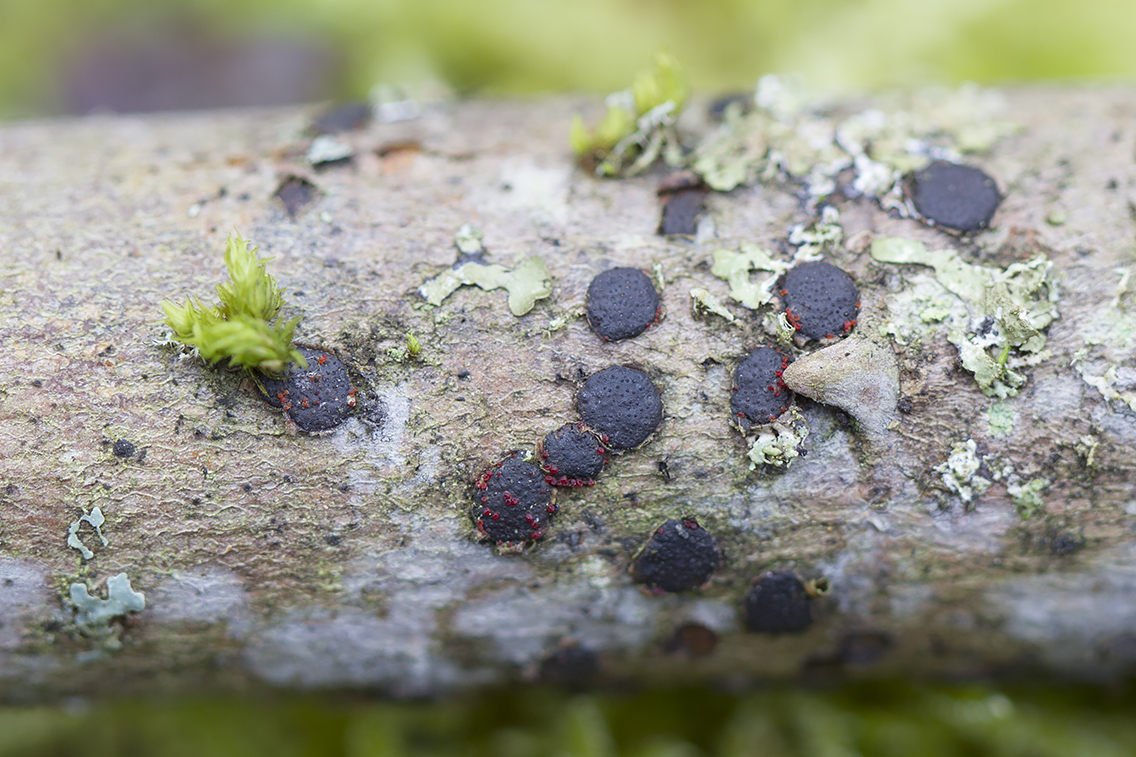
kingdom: Fungi
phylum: Ascomycota
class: Sordariomycetes
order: Hypocreales
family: Nectriaceae
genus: Dialonectria
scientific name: Dialonectria diatrypicola
